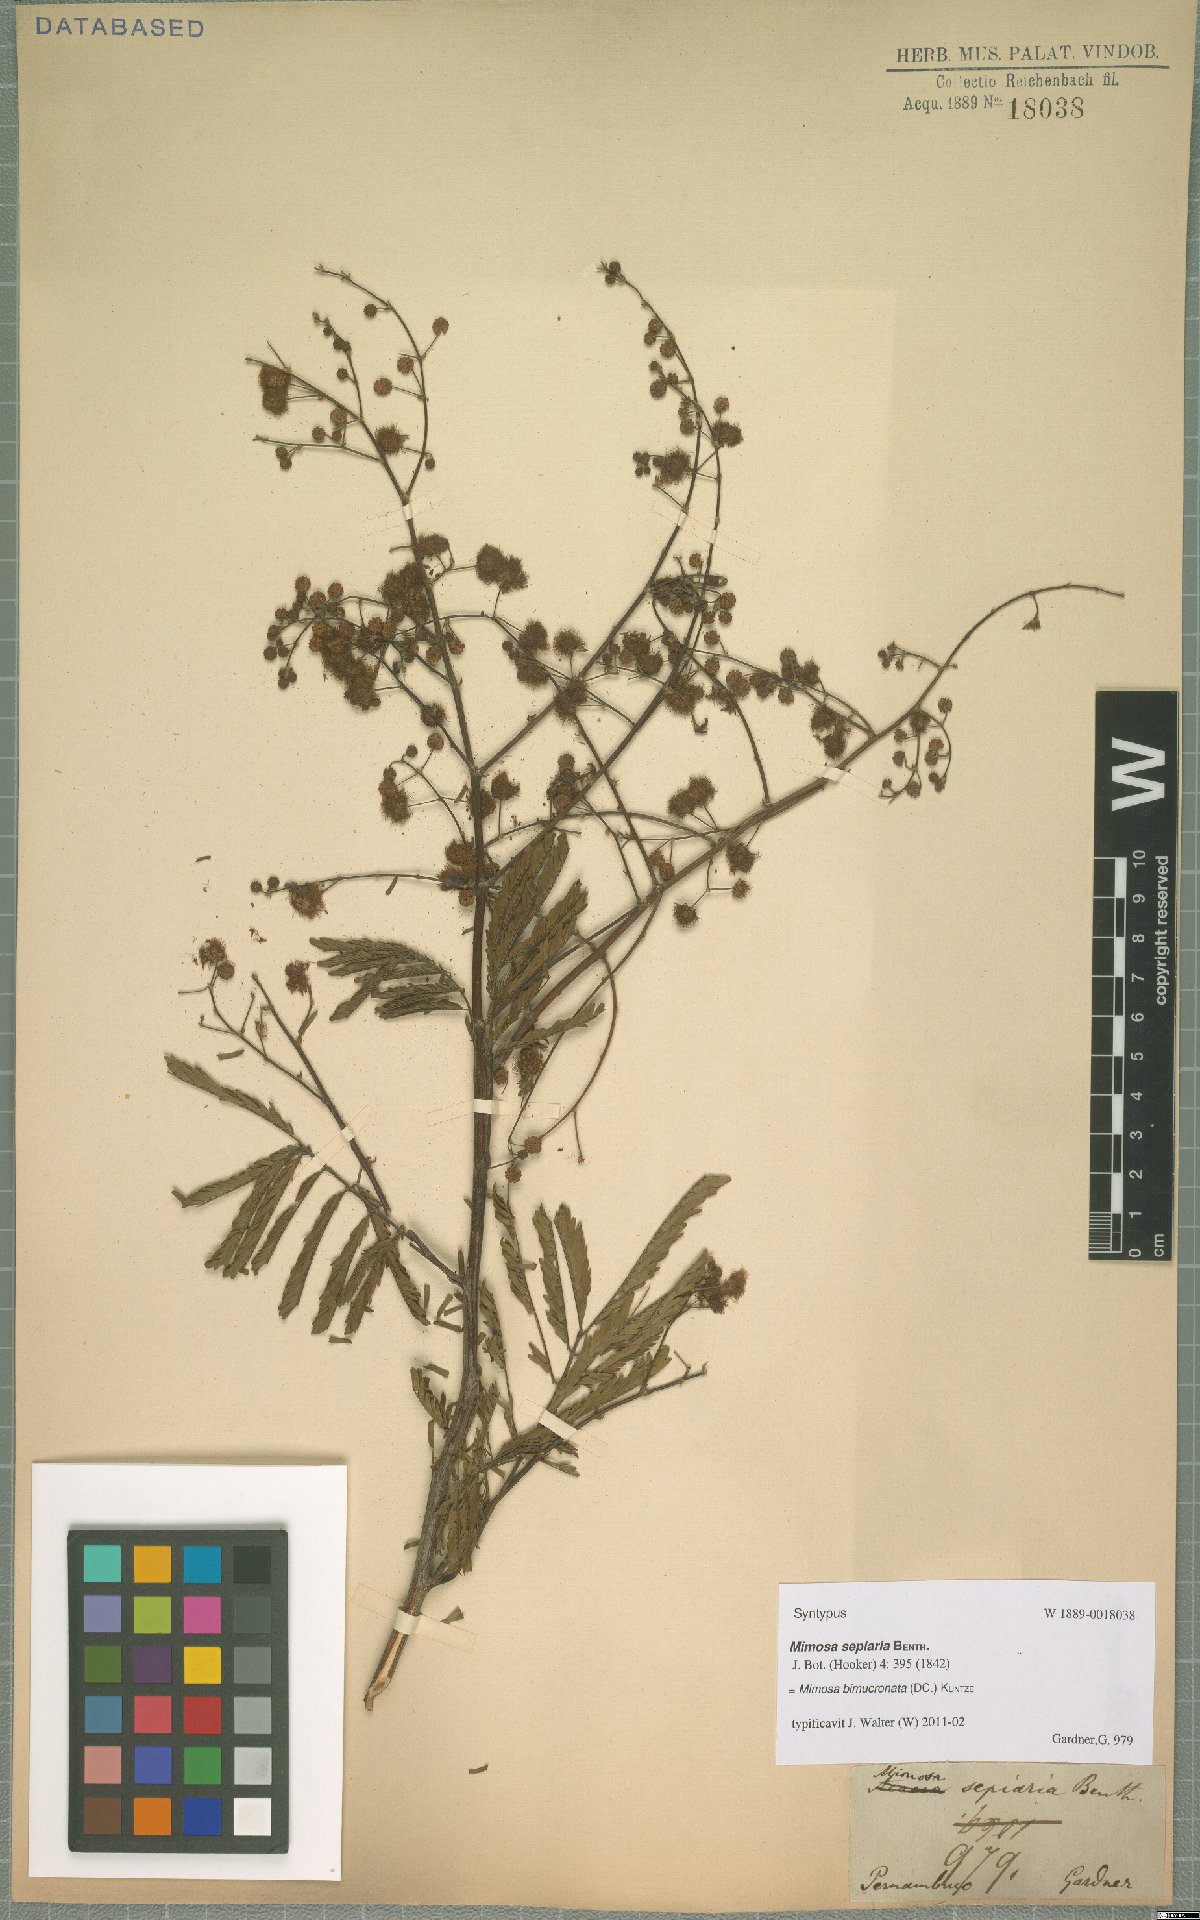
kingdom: Plantae
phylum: Tracheophyta
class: Magnoliopsida
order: Fabales
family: Fabaceae
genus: Mimosa
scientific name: Mimosa bimucronata
